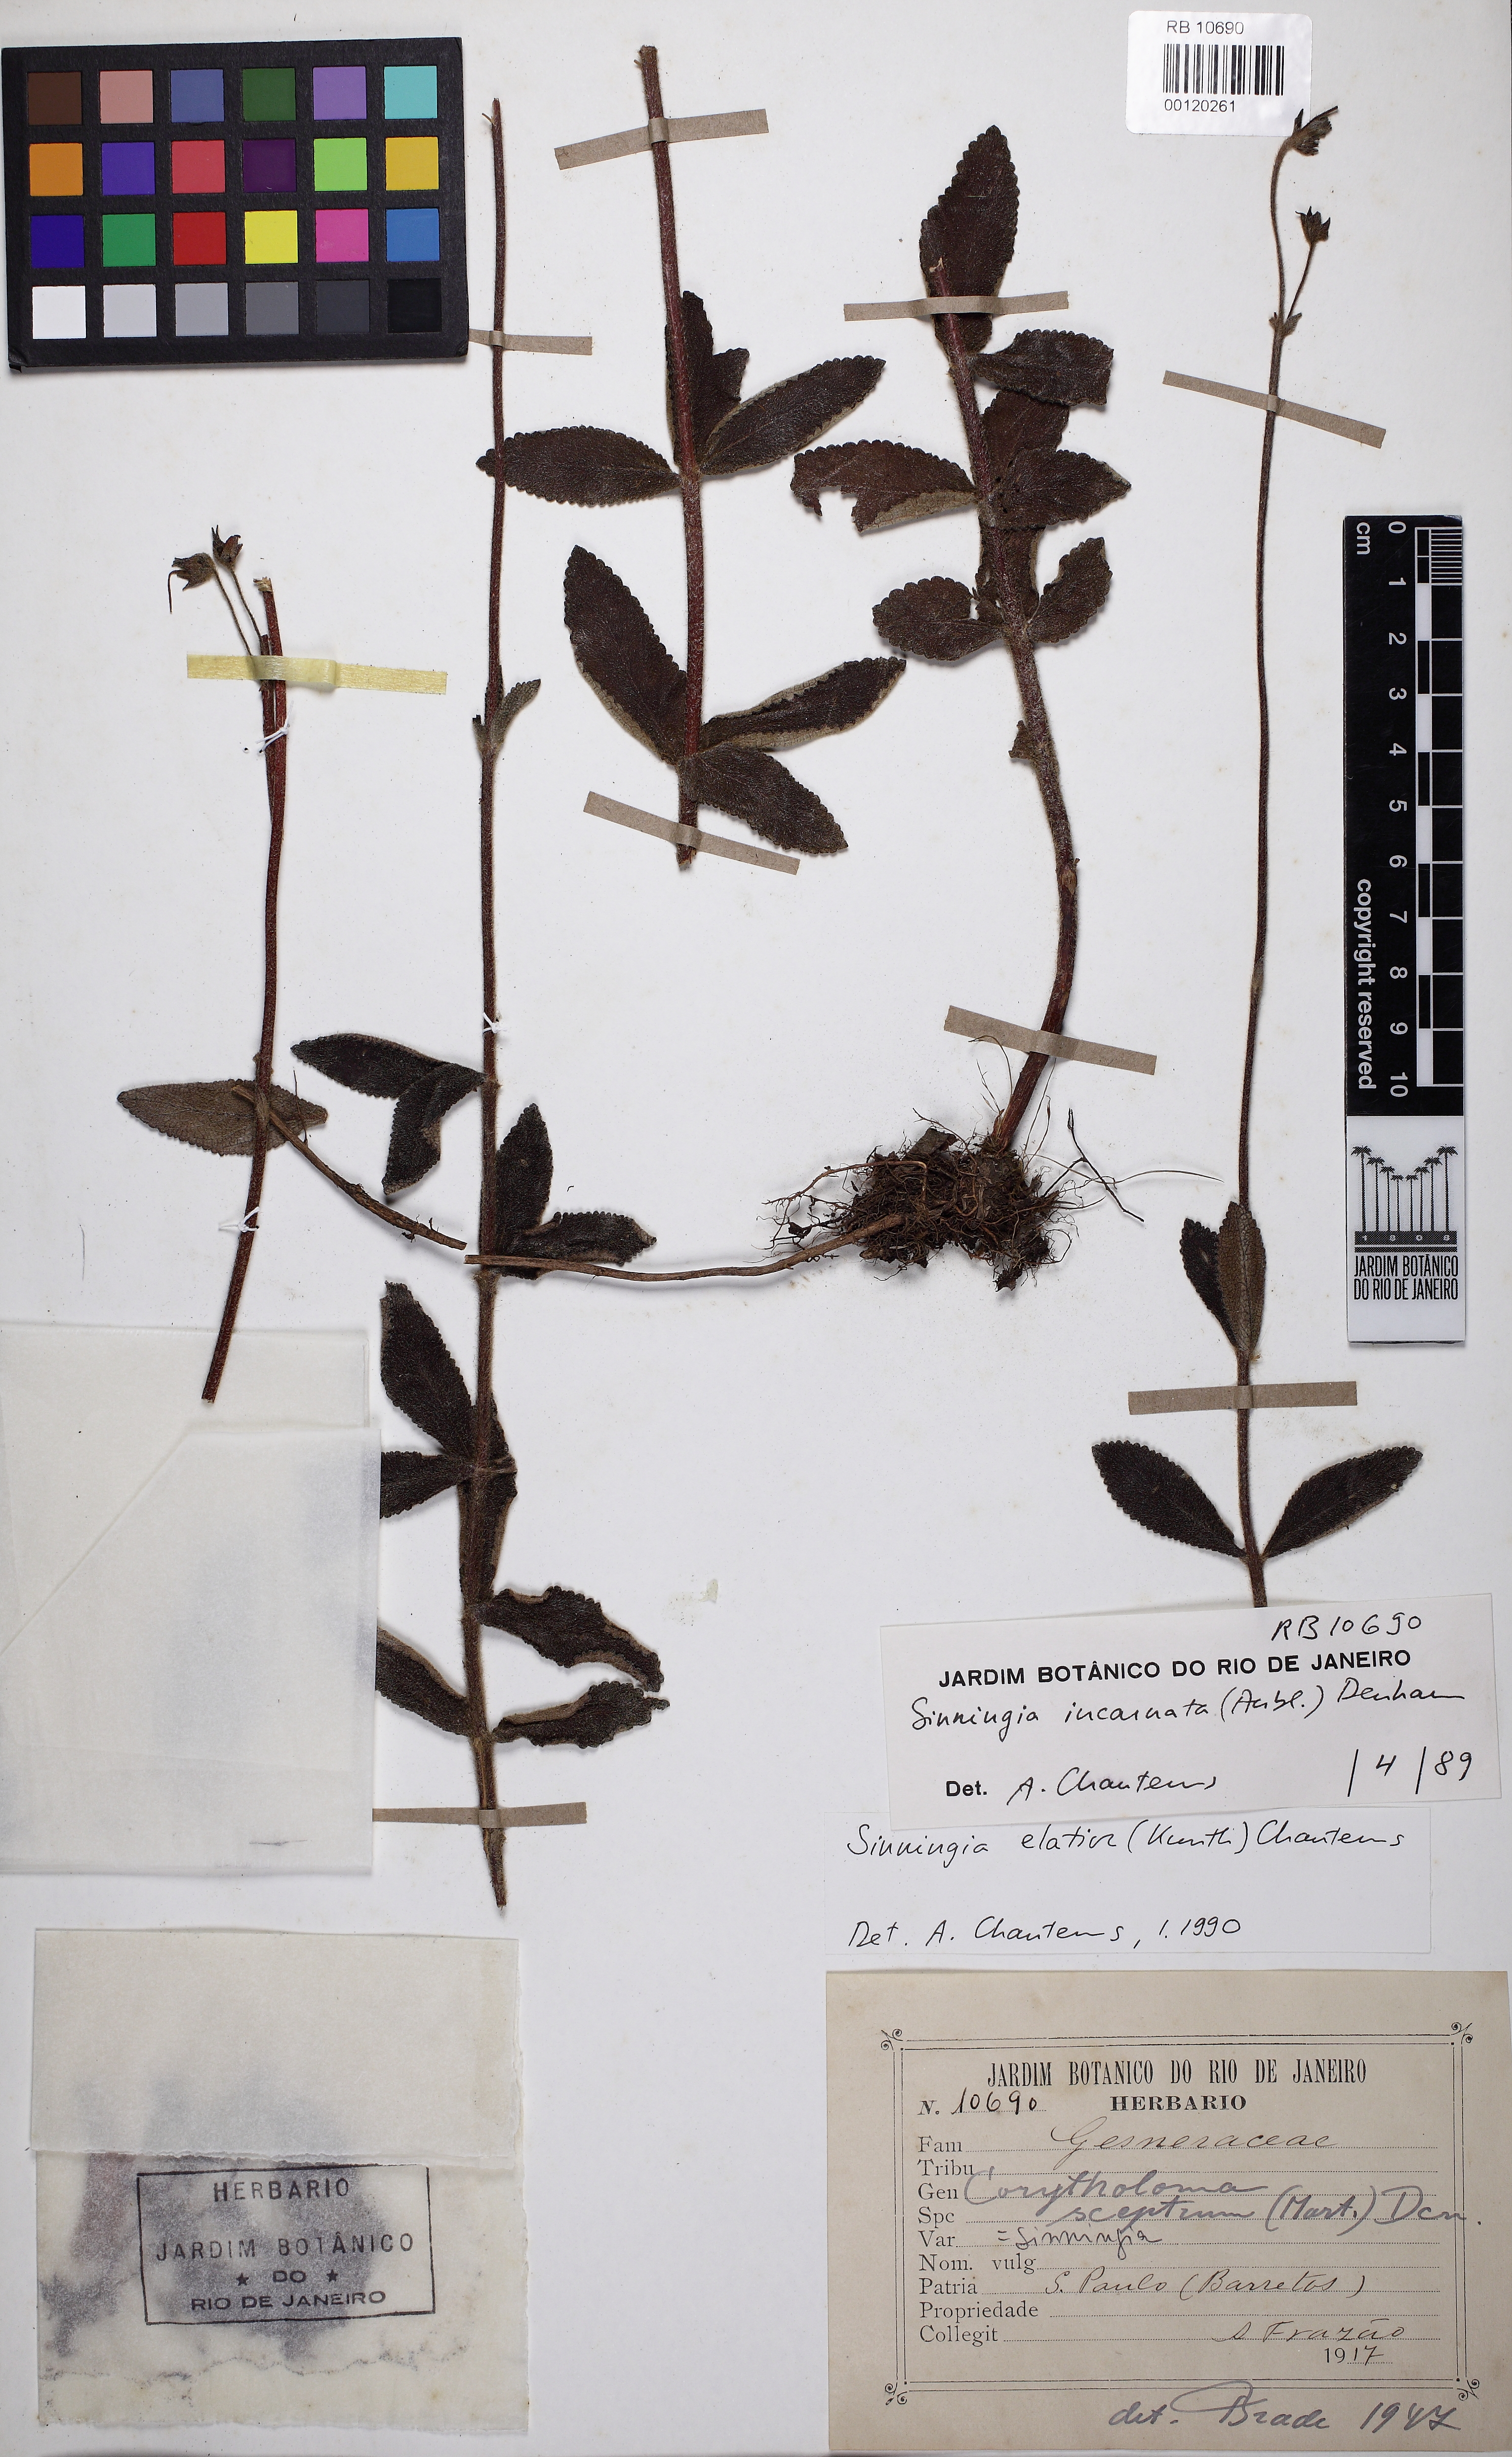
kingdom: Plantae
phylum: Tracheophyta
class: Magnoliopsida
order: Lamiales
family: Gesneriaceae
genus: Sinningia
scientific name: Sinningia elatior
